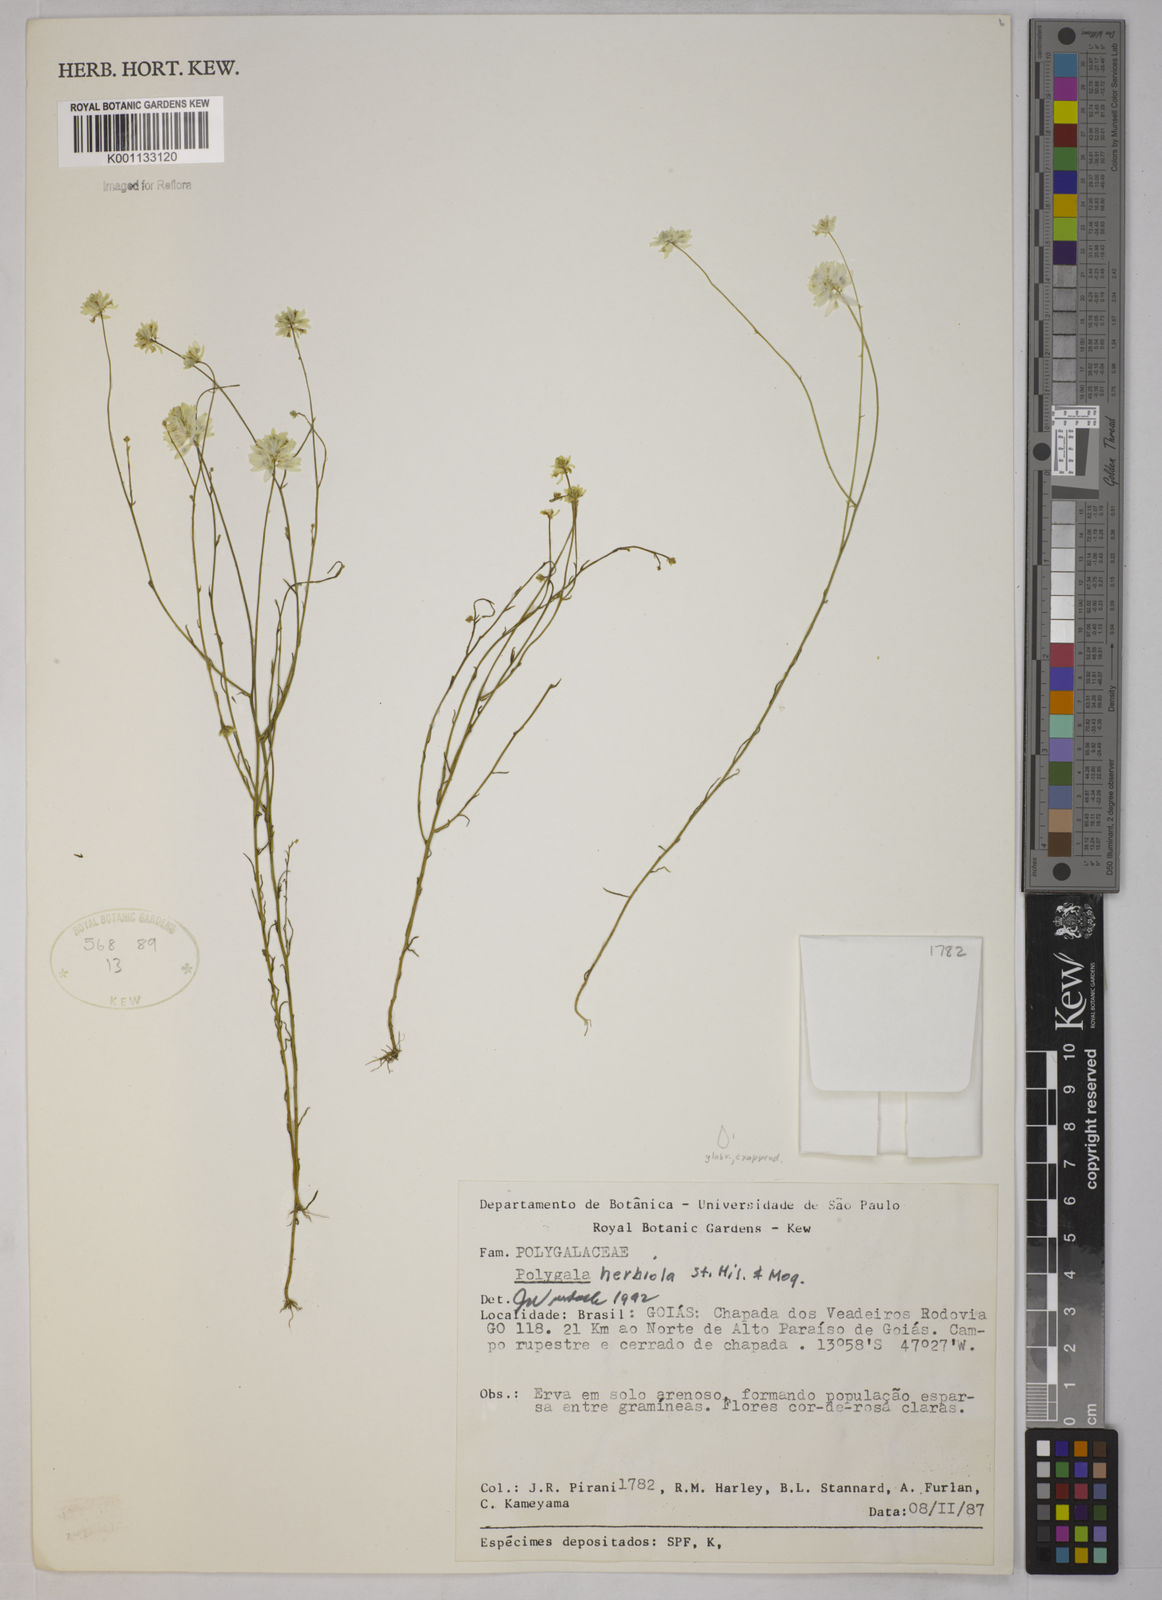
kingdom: Plantae
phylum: Tracheophyta
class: Magnoliopsida
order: Fabales
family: Polygalaceae
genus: Polygala
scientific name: Polygala herbiola
